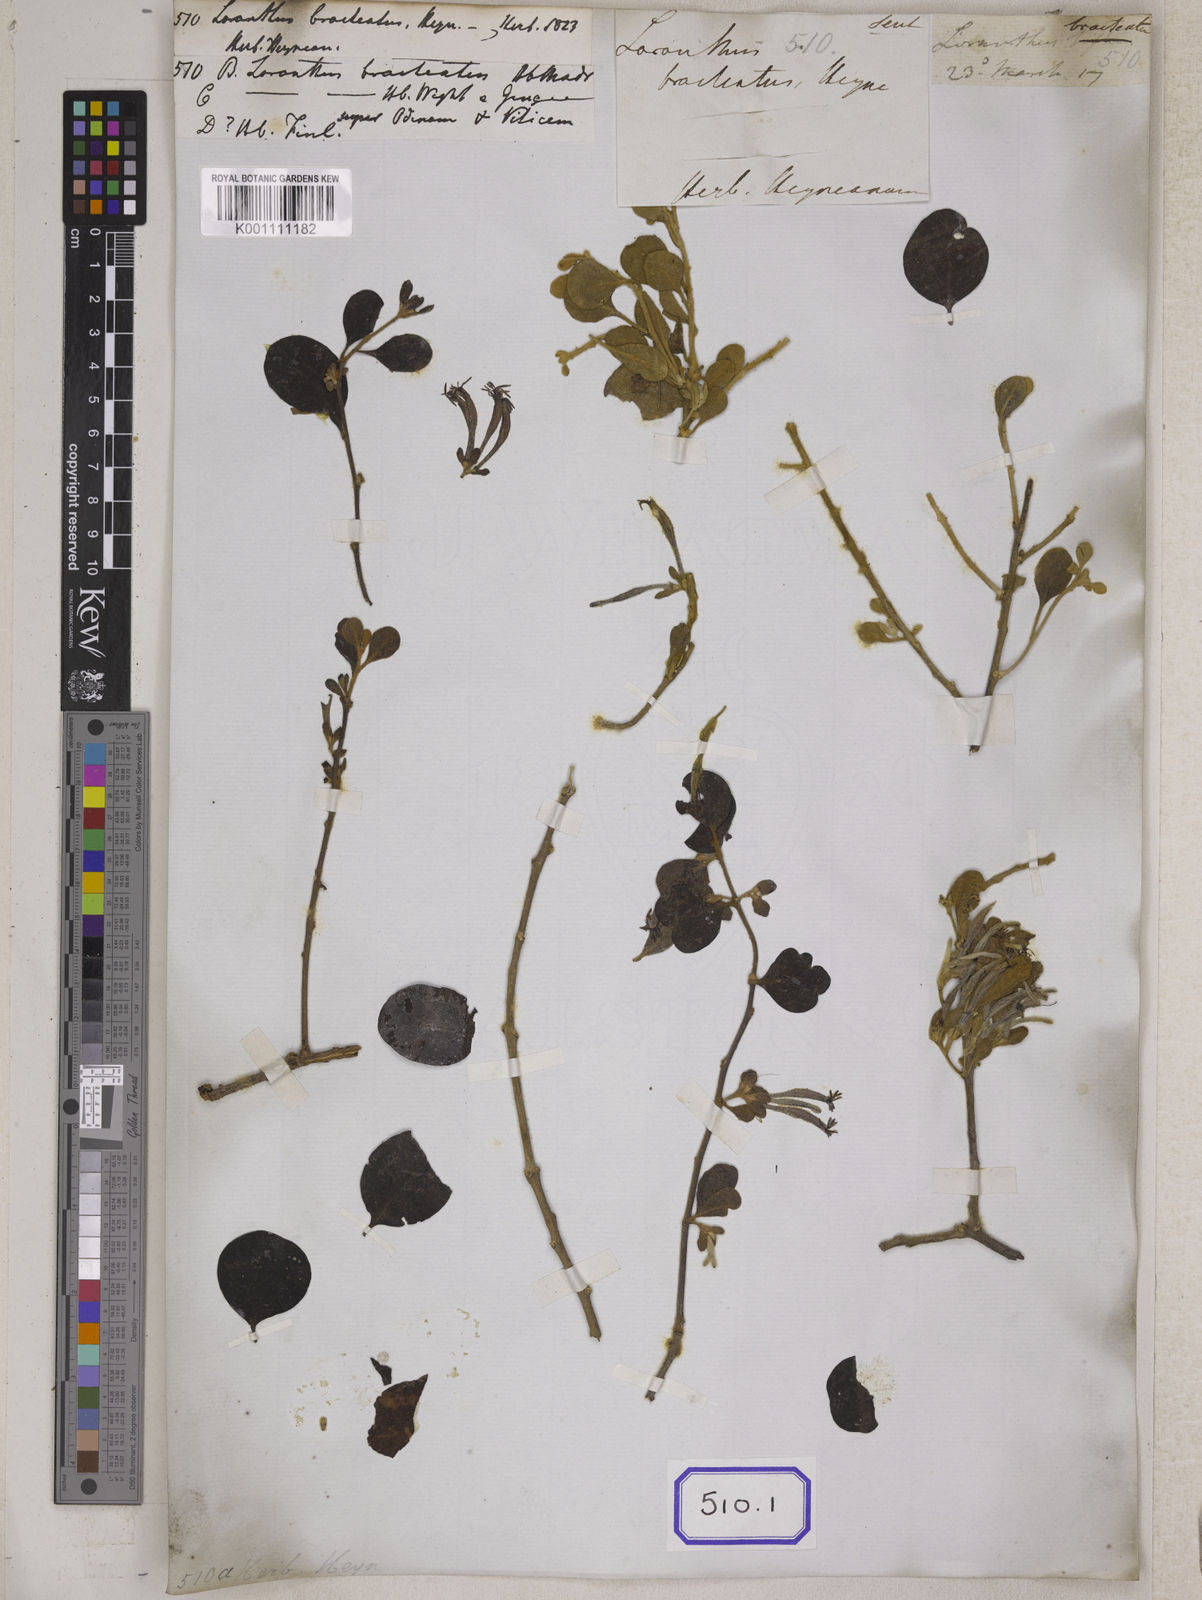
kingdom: Plantae
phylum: Tracheophyta
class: Magnoliopsida
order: Santalales
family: Loranthaceae
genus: Loranthus
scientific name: Loranthus
